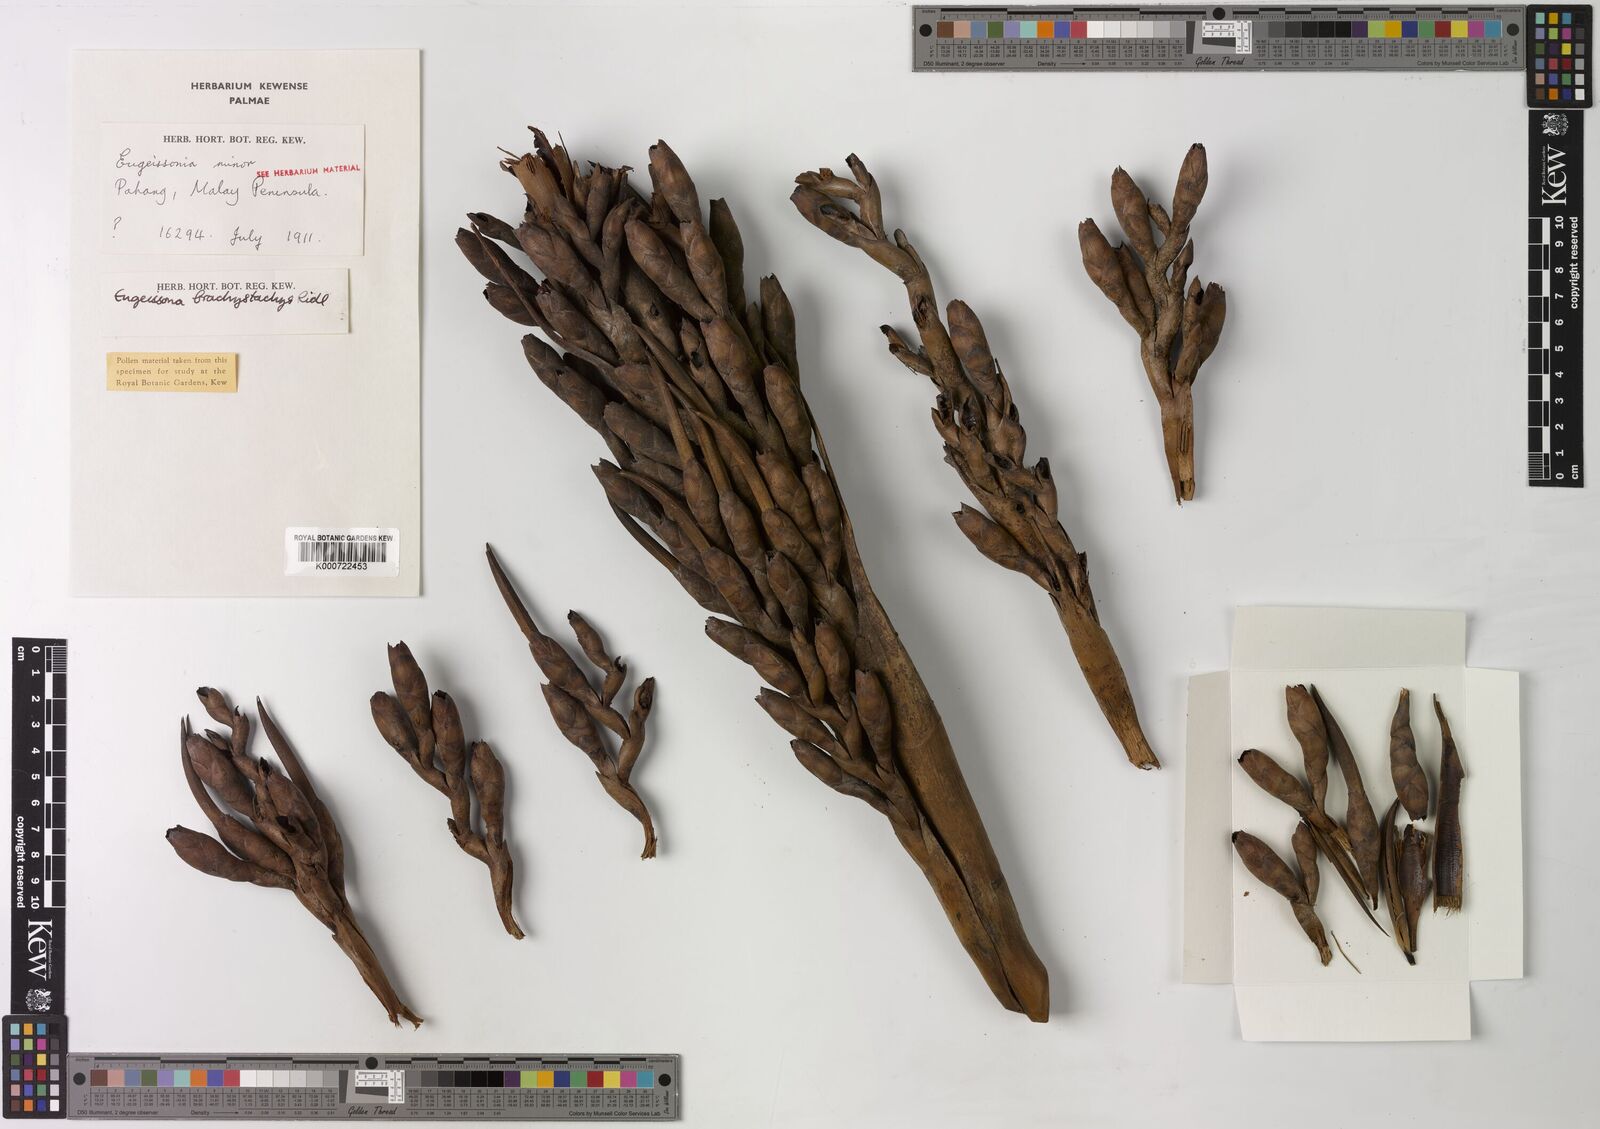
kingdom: Plantae
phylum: Tracheophyta
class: Liliopsida
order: Arecales
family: Arecaceae
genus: Eugeissona
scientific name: Eugeissona brachystachys
